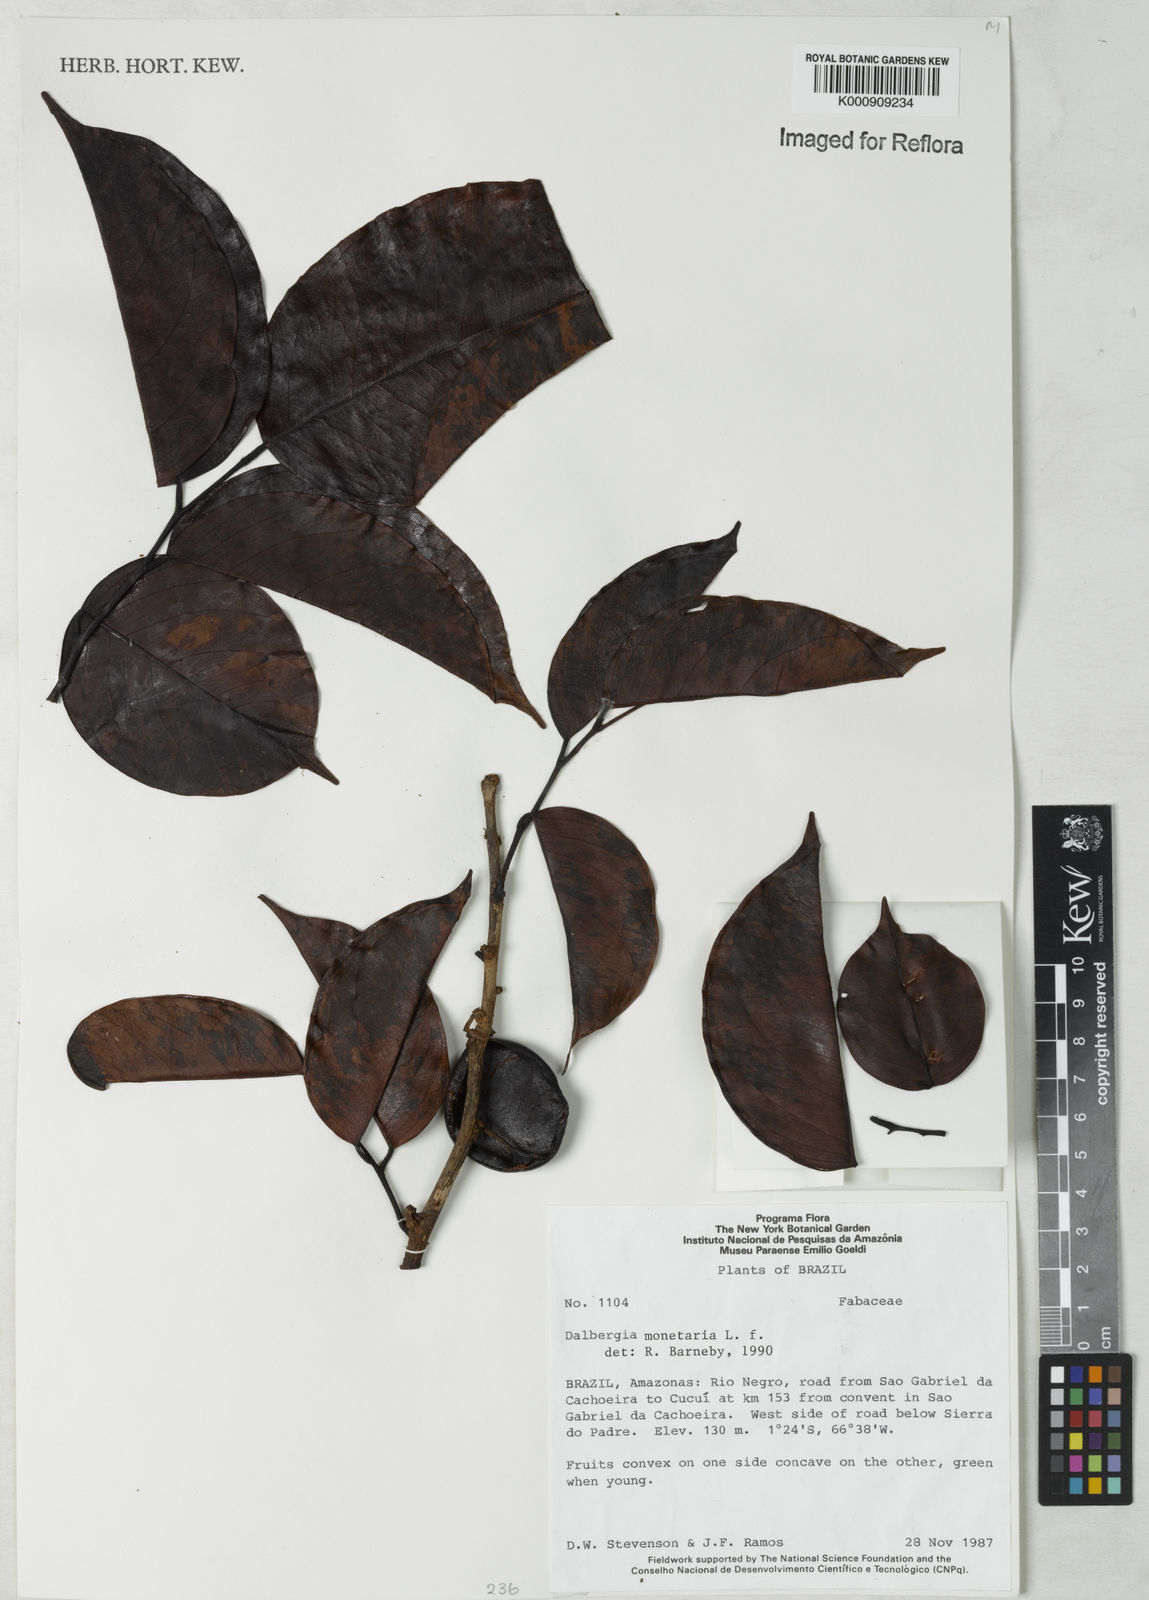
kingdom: Plantae
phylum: Tracheophyta
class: Magnoliopsida
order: Fabales
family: Fabaceae
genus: Dalbergia
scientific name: Dalbergia ovalis
